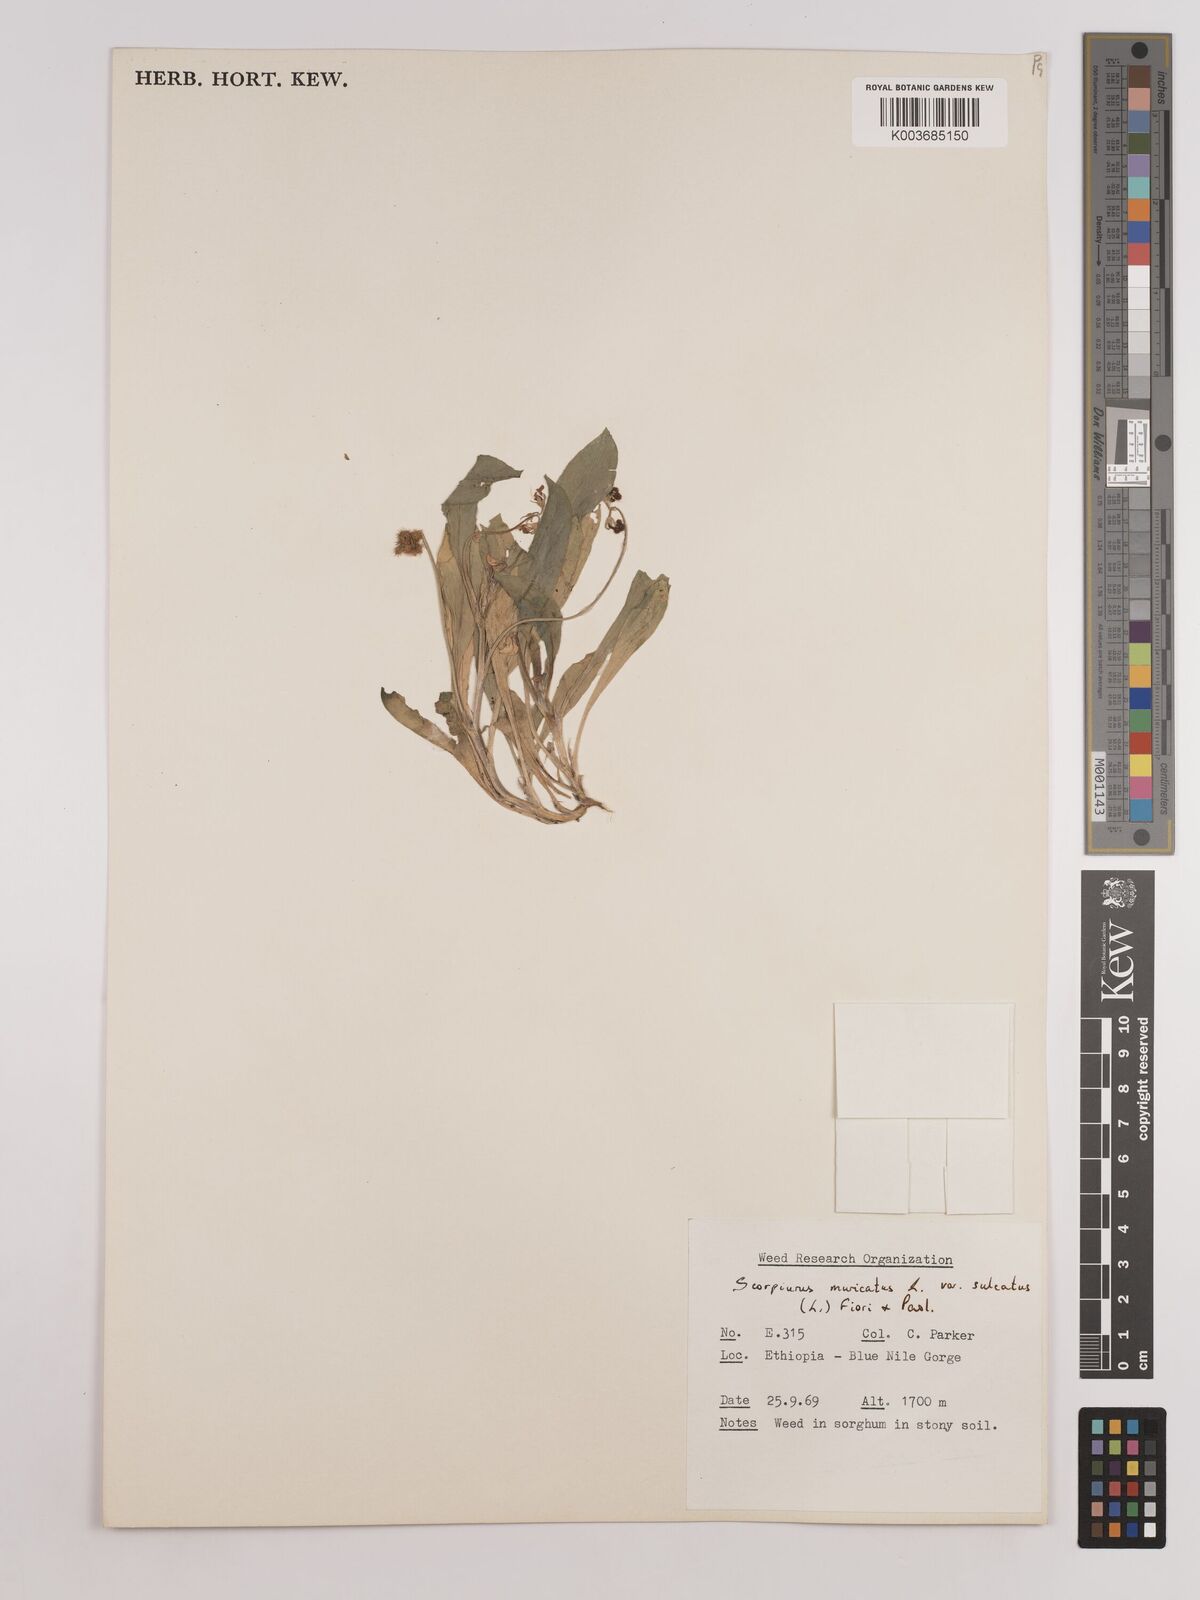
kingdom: Plantae
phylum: Tracheophyta
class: Magnoliopsida
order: Fabales
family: Fabaceae
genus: Scorpiurus
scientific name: Scorpiurus muricatus
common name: Caterpillar-plant
